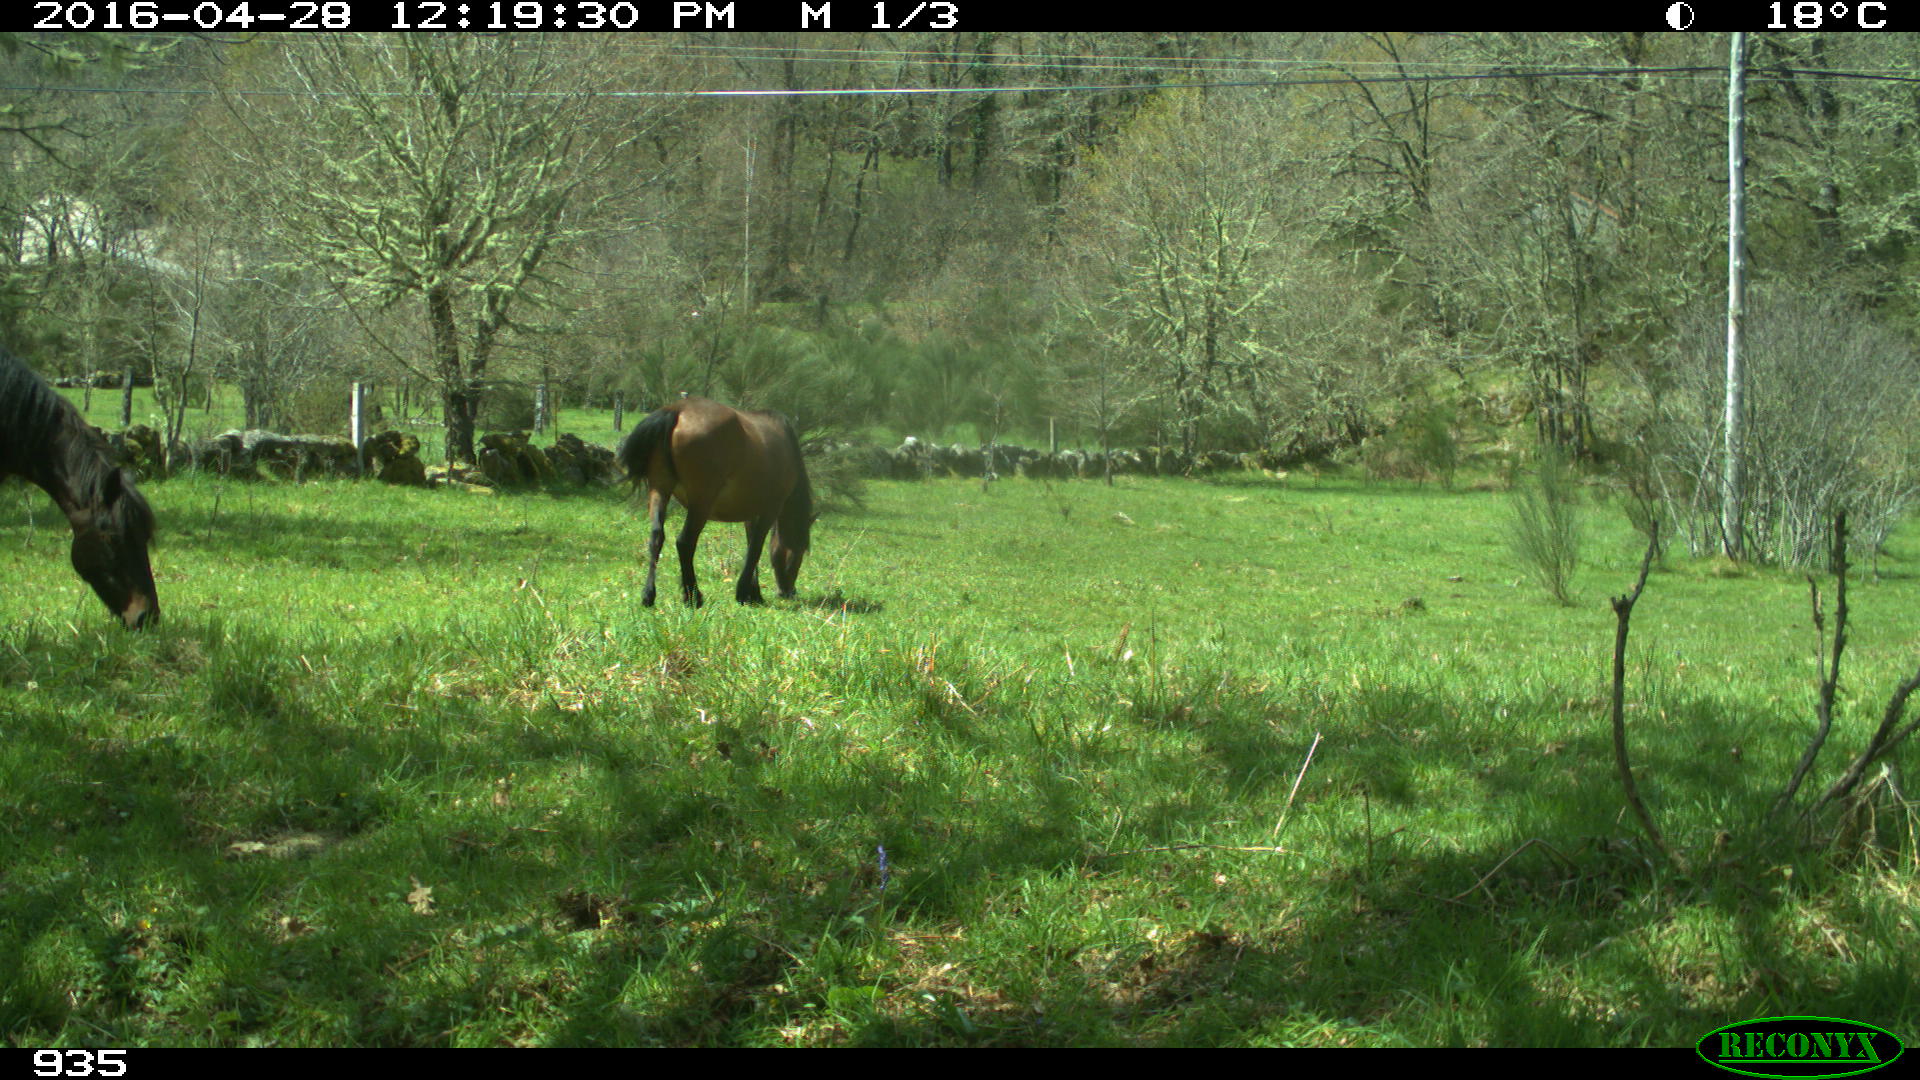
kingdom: Animalia
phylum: Chordata
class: Mammalia
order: Perissodactyla
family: Equidae
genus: Equus
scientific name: Equus caballus
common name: Horse
